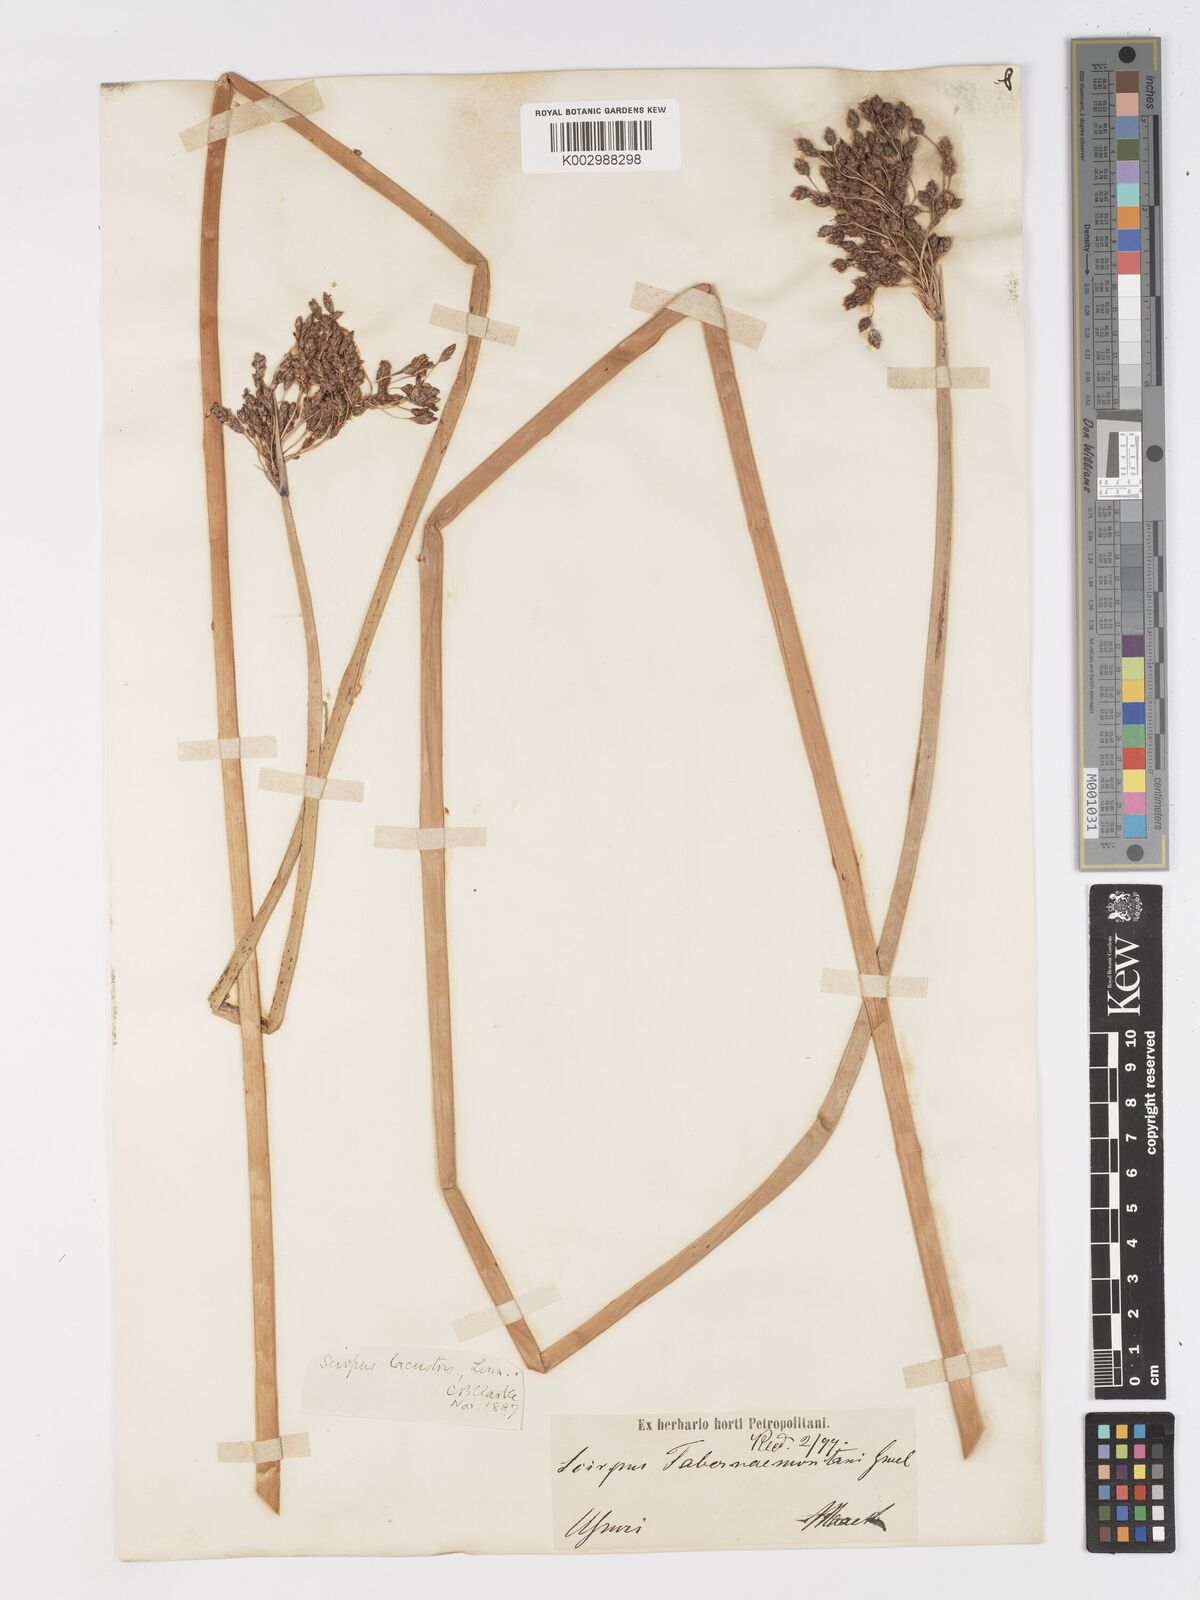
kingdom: Plantae
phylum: Tracheophyta
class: Liliopsida
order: Poales
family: Cyperaceae
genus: Schoenoplectus
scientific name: Schoenoplectus lacustris
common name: Common club-rush
